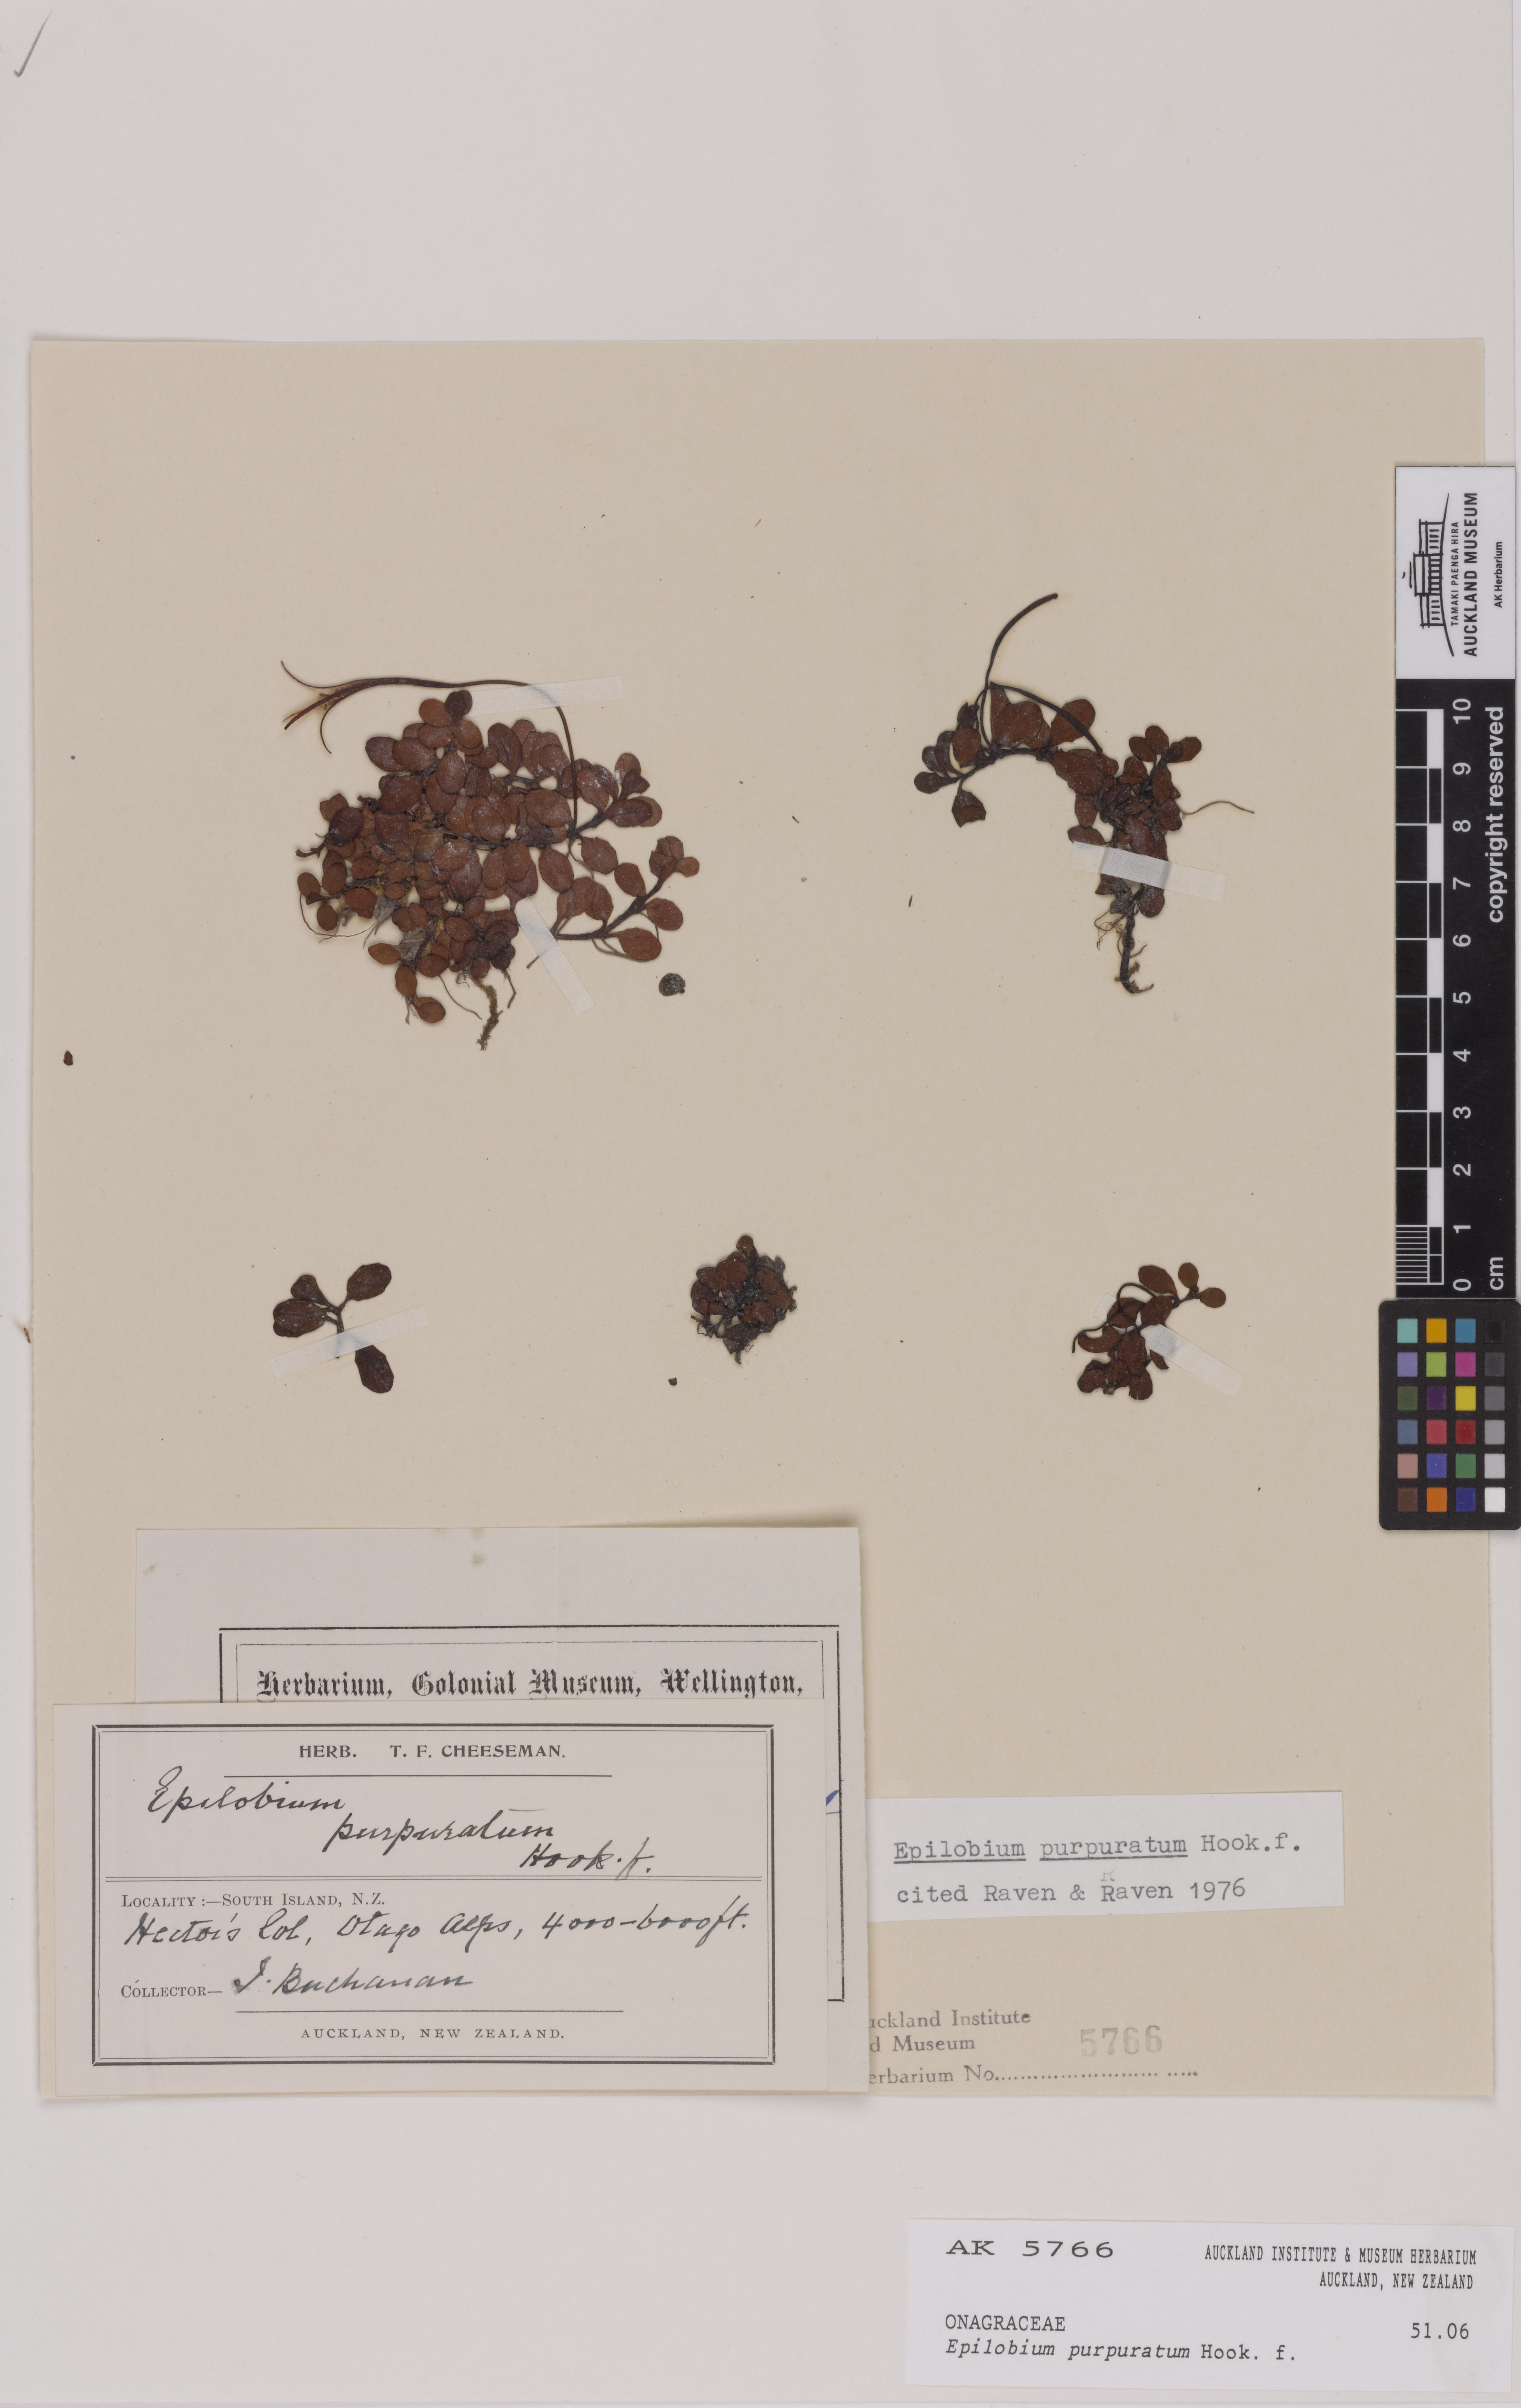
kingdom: Plantae
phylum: Tracheophyta
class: Magnoliopsida
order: Myrtales
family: Onagraceae
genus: Epilobium
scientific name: Epilobium purpuratum
